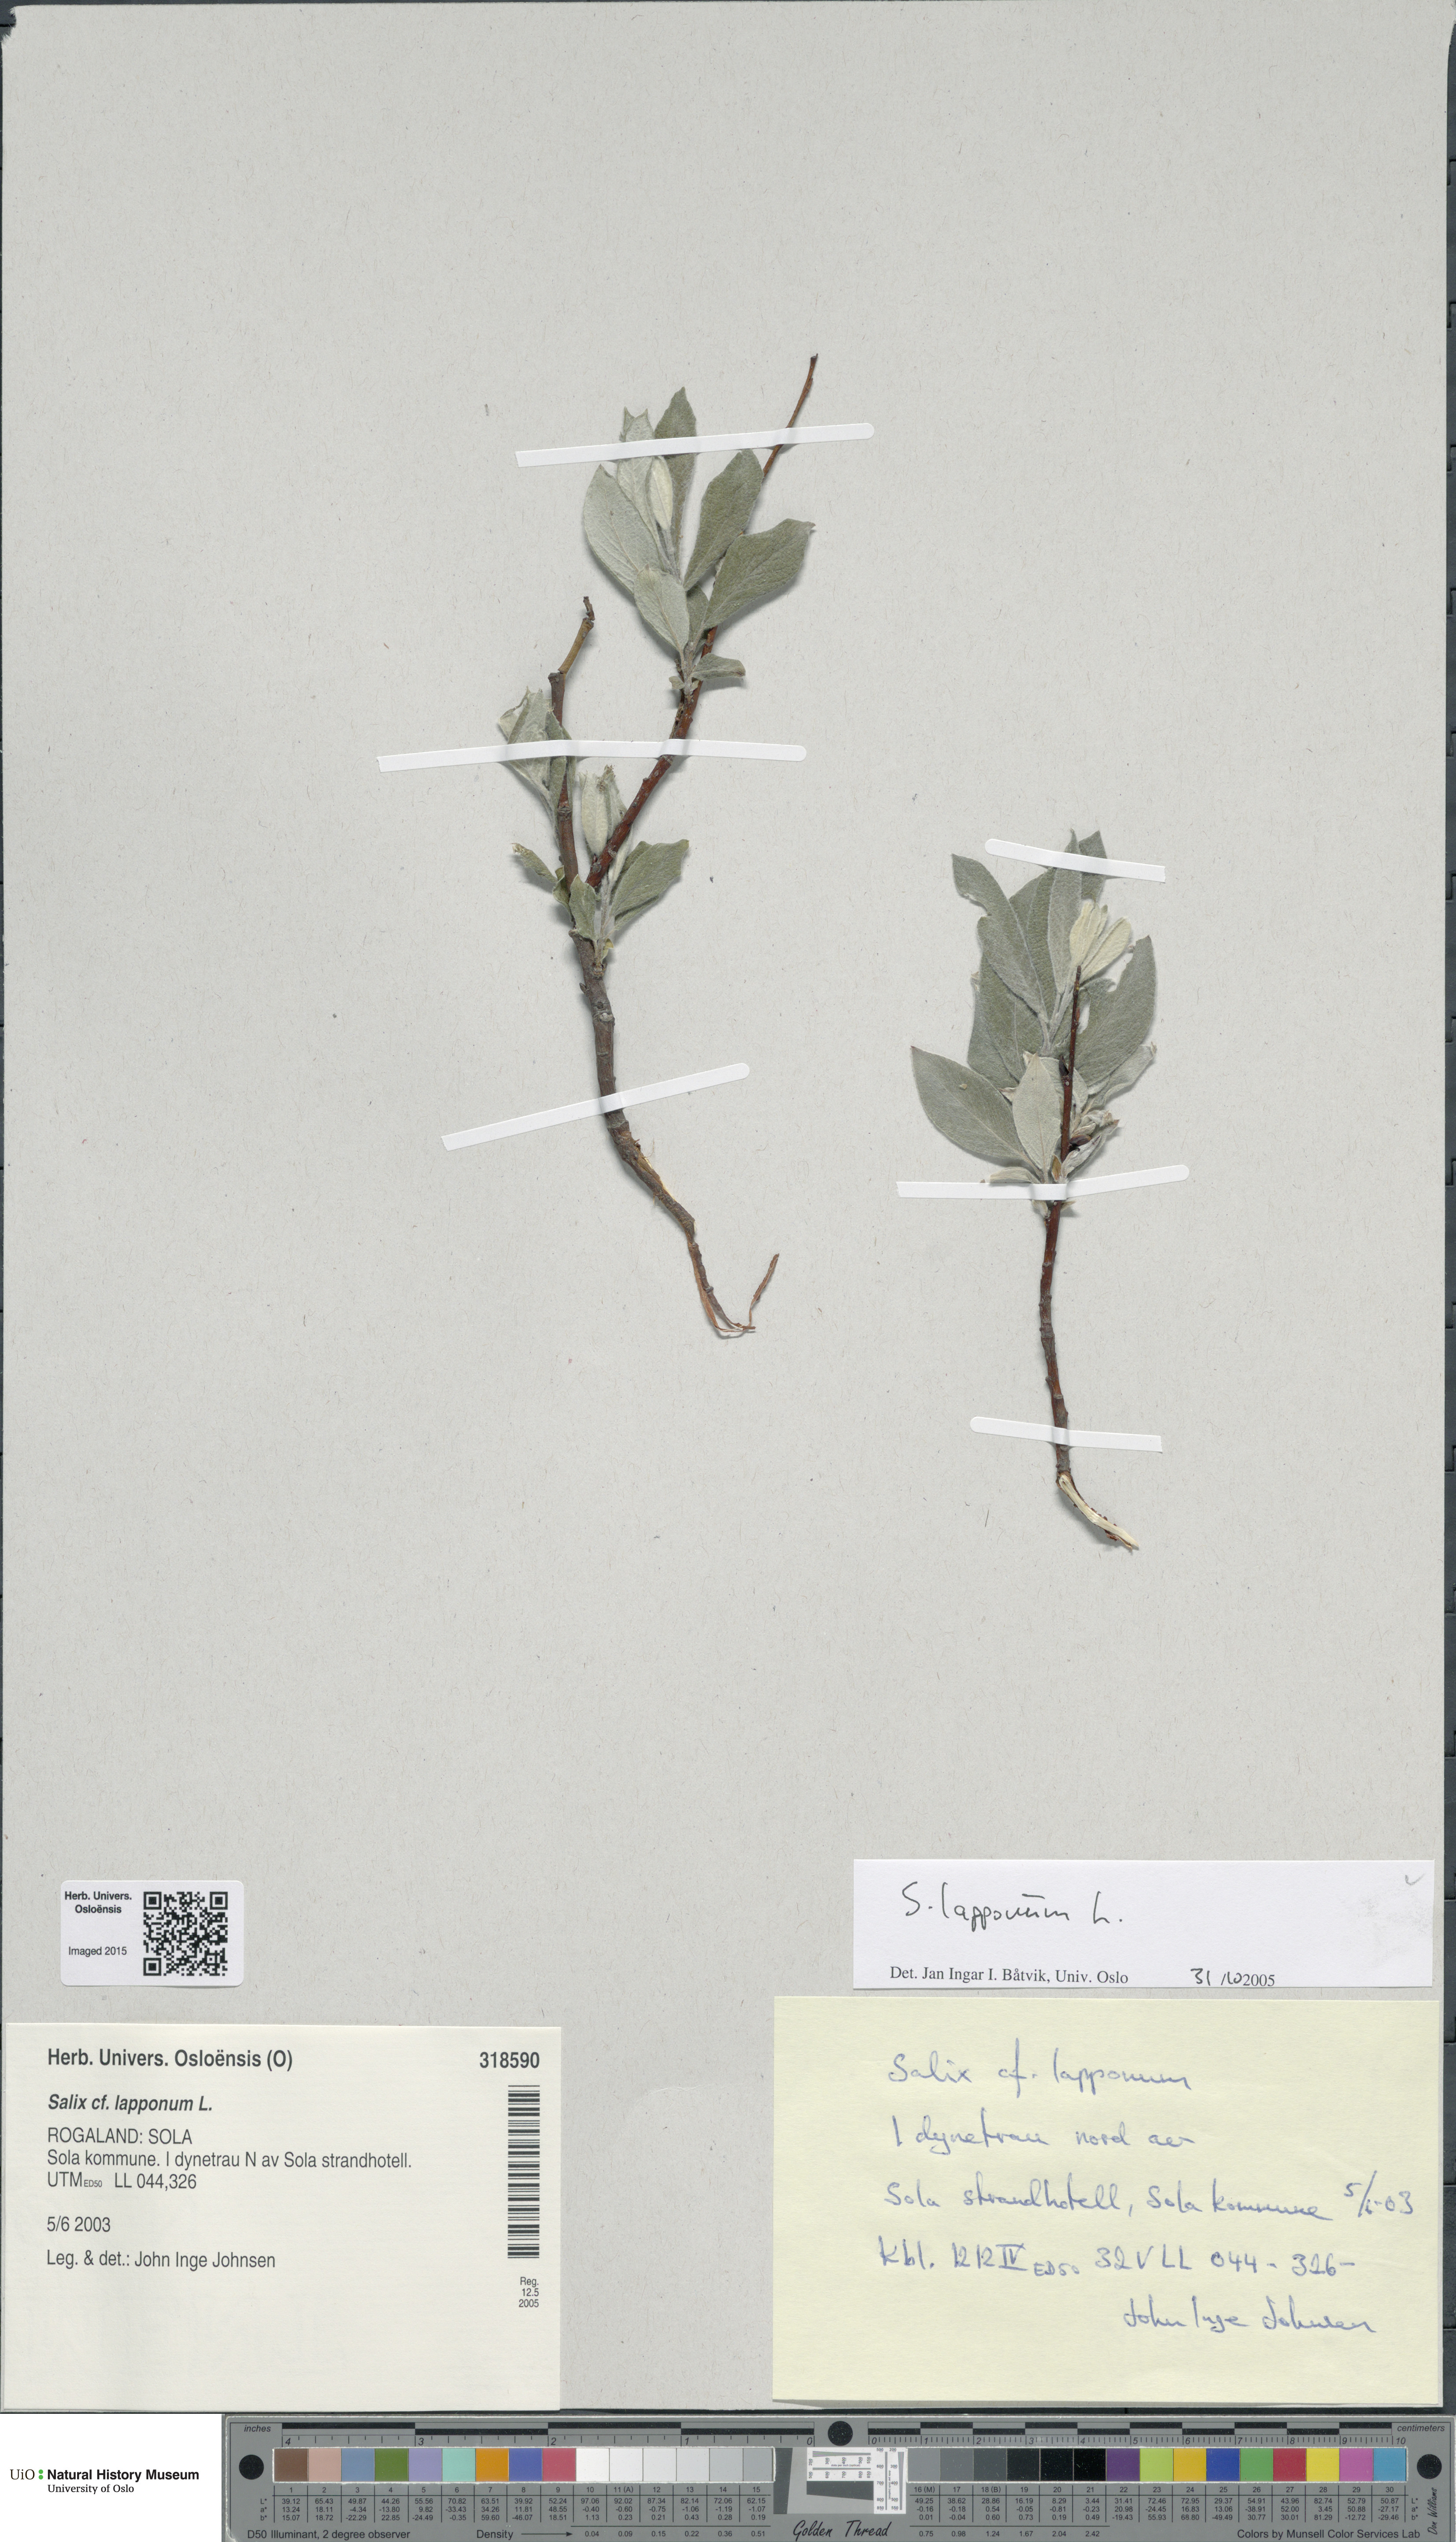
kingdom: Plantae
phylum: Tracheophyta
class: Magnoliopsida
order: Malpighiales
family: Salicaceae
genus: Salix
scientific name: Salix lapponum
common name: Downy willow
